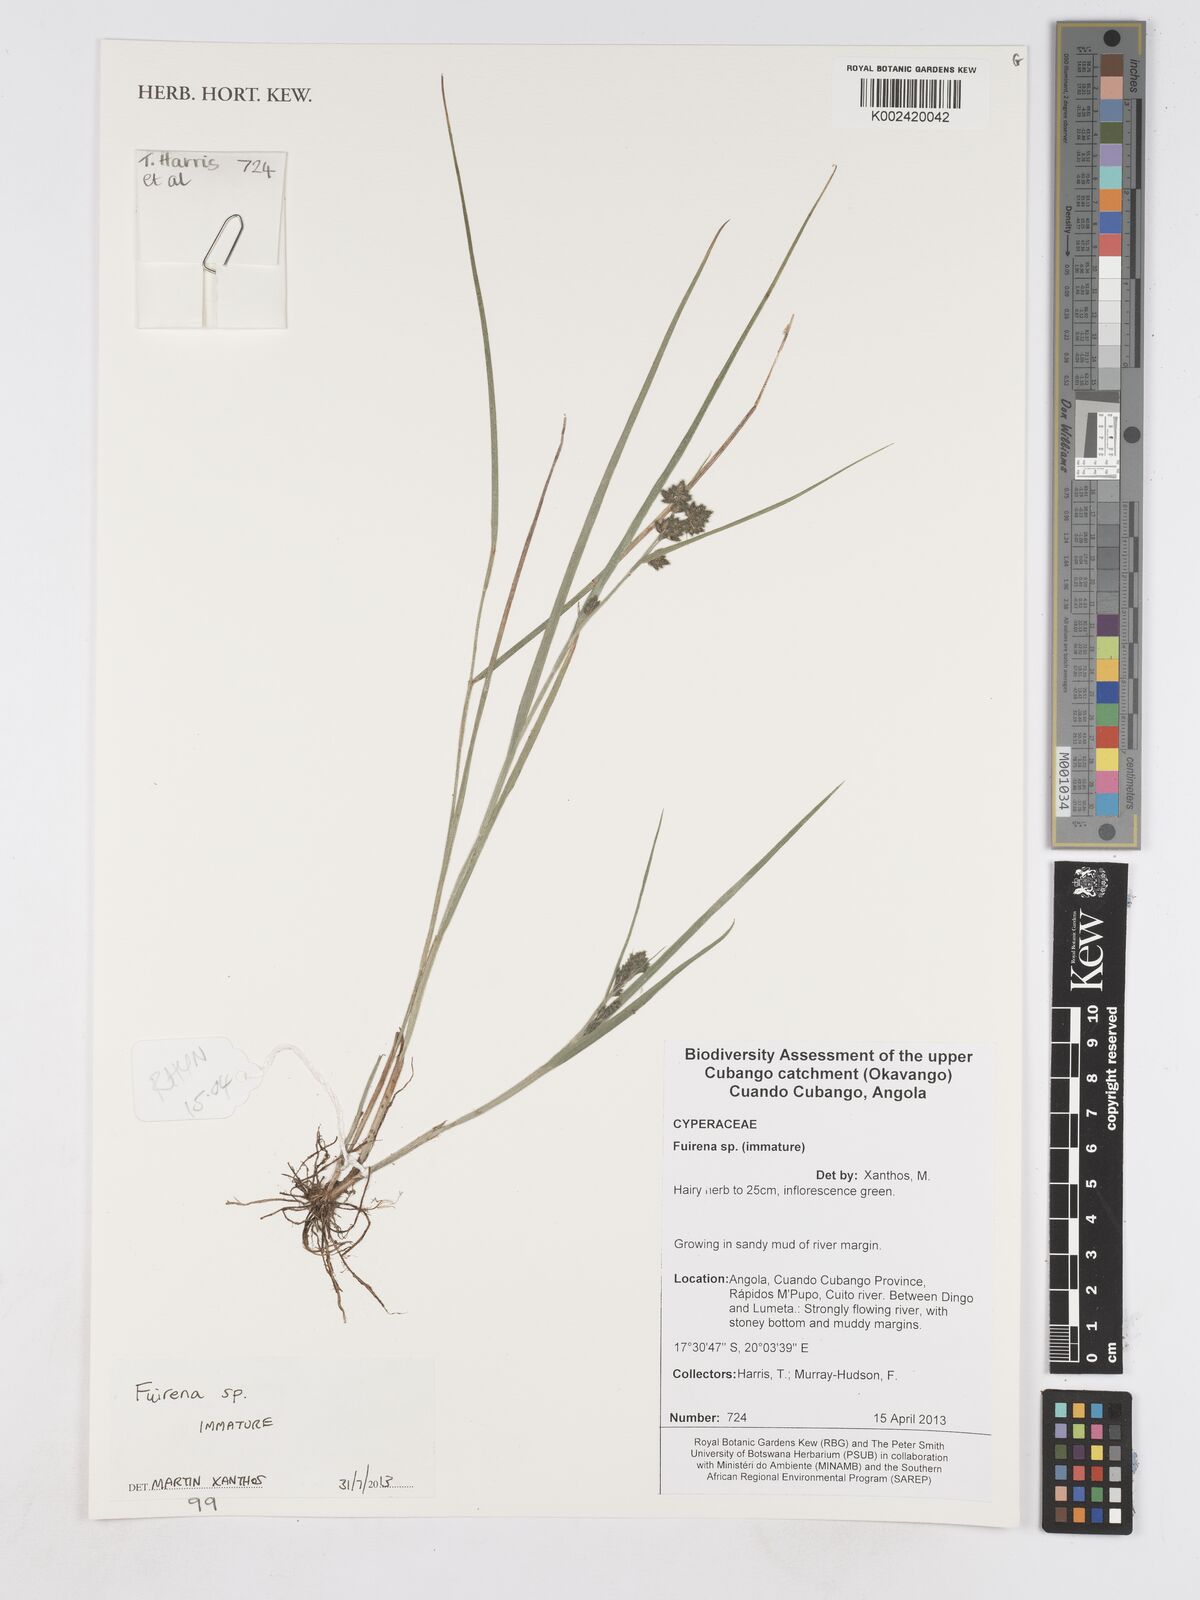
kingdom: Plantae
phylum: Tracheophyta
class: Liliopsida
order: Poales
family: Cyperaceae
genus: Fuirena
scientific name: Fuirena
